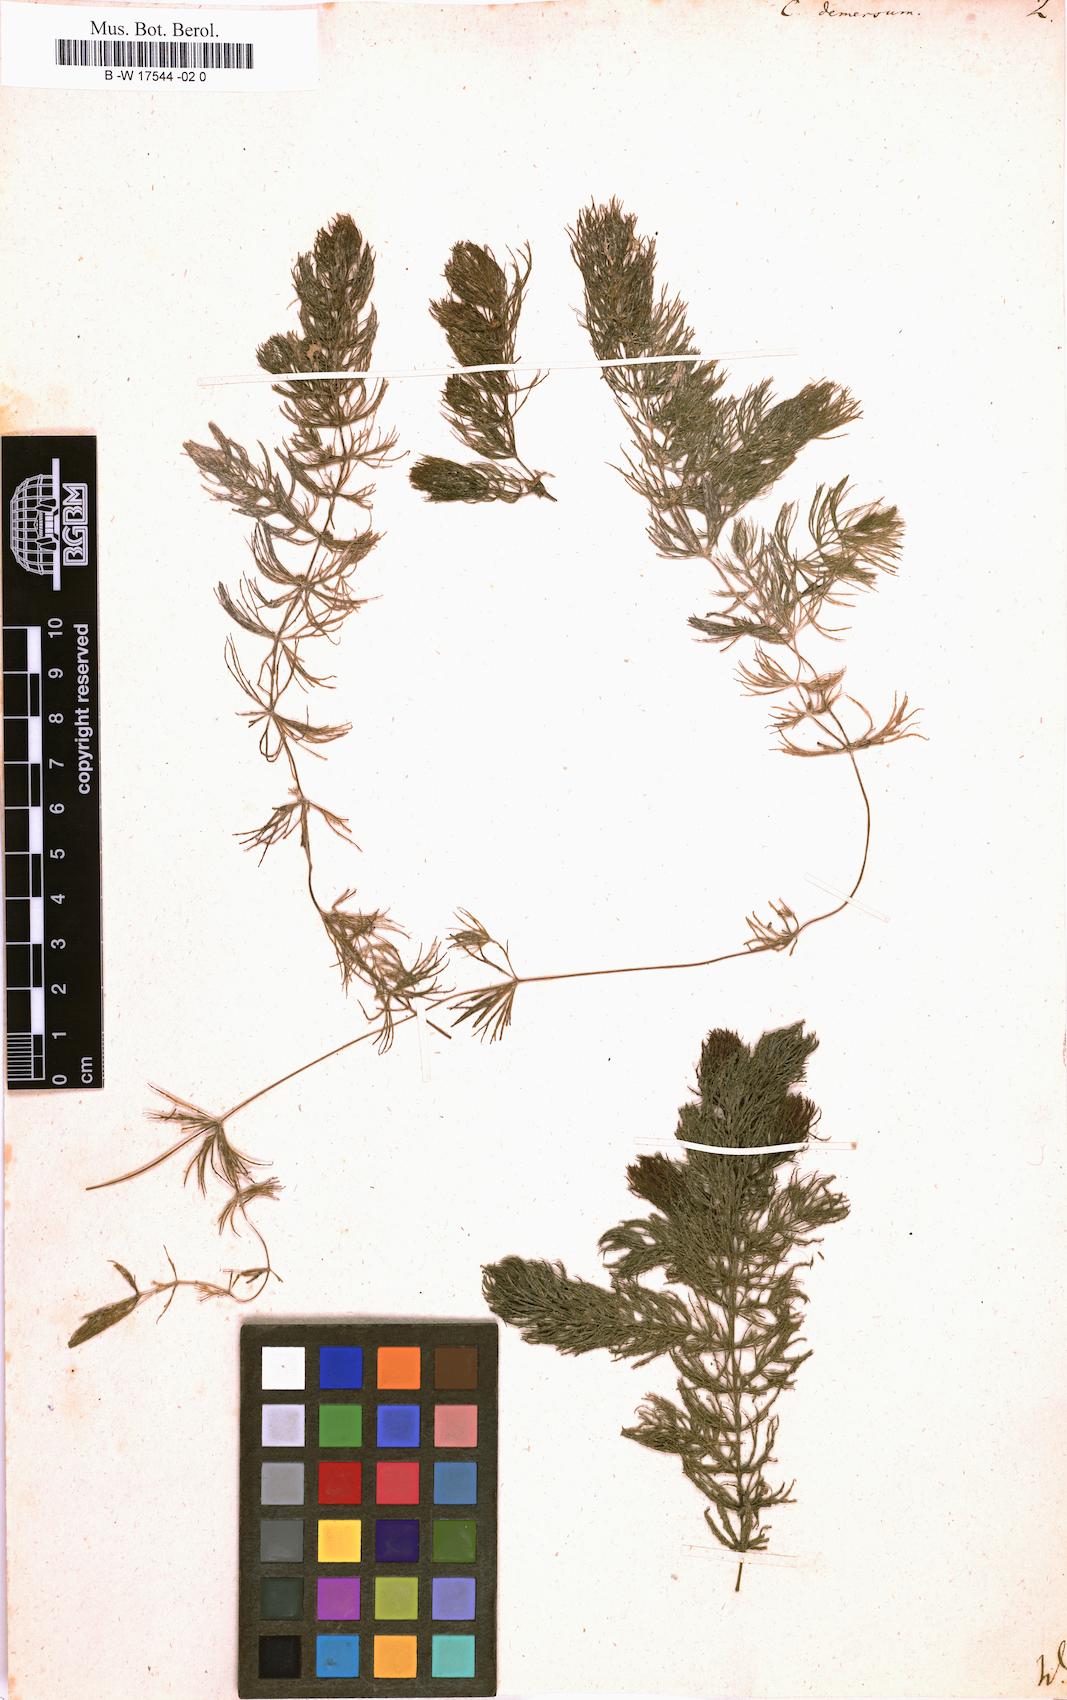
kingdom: Plantae
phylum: Tracheophyta
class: Magnoliopsida
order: Ceratophyllales
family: Ceratophyllaceae
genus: Ceratophyllum
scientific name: Ceratophyllum demersum
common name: Rigid hornwort
